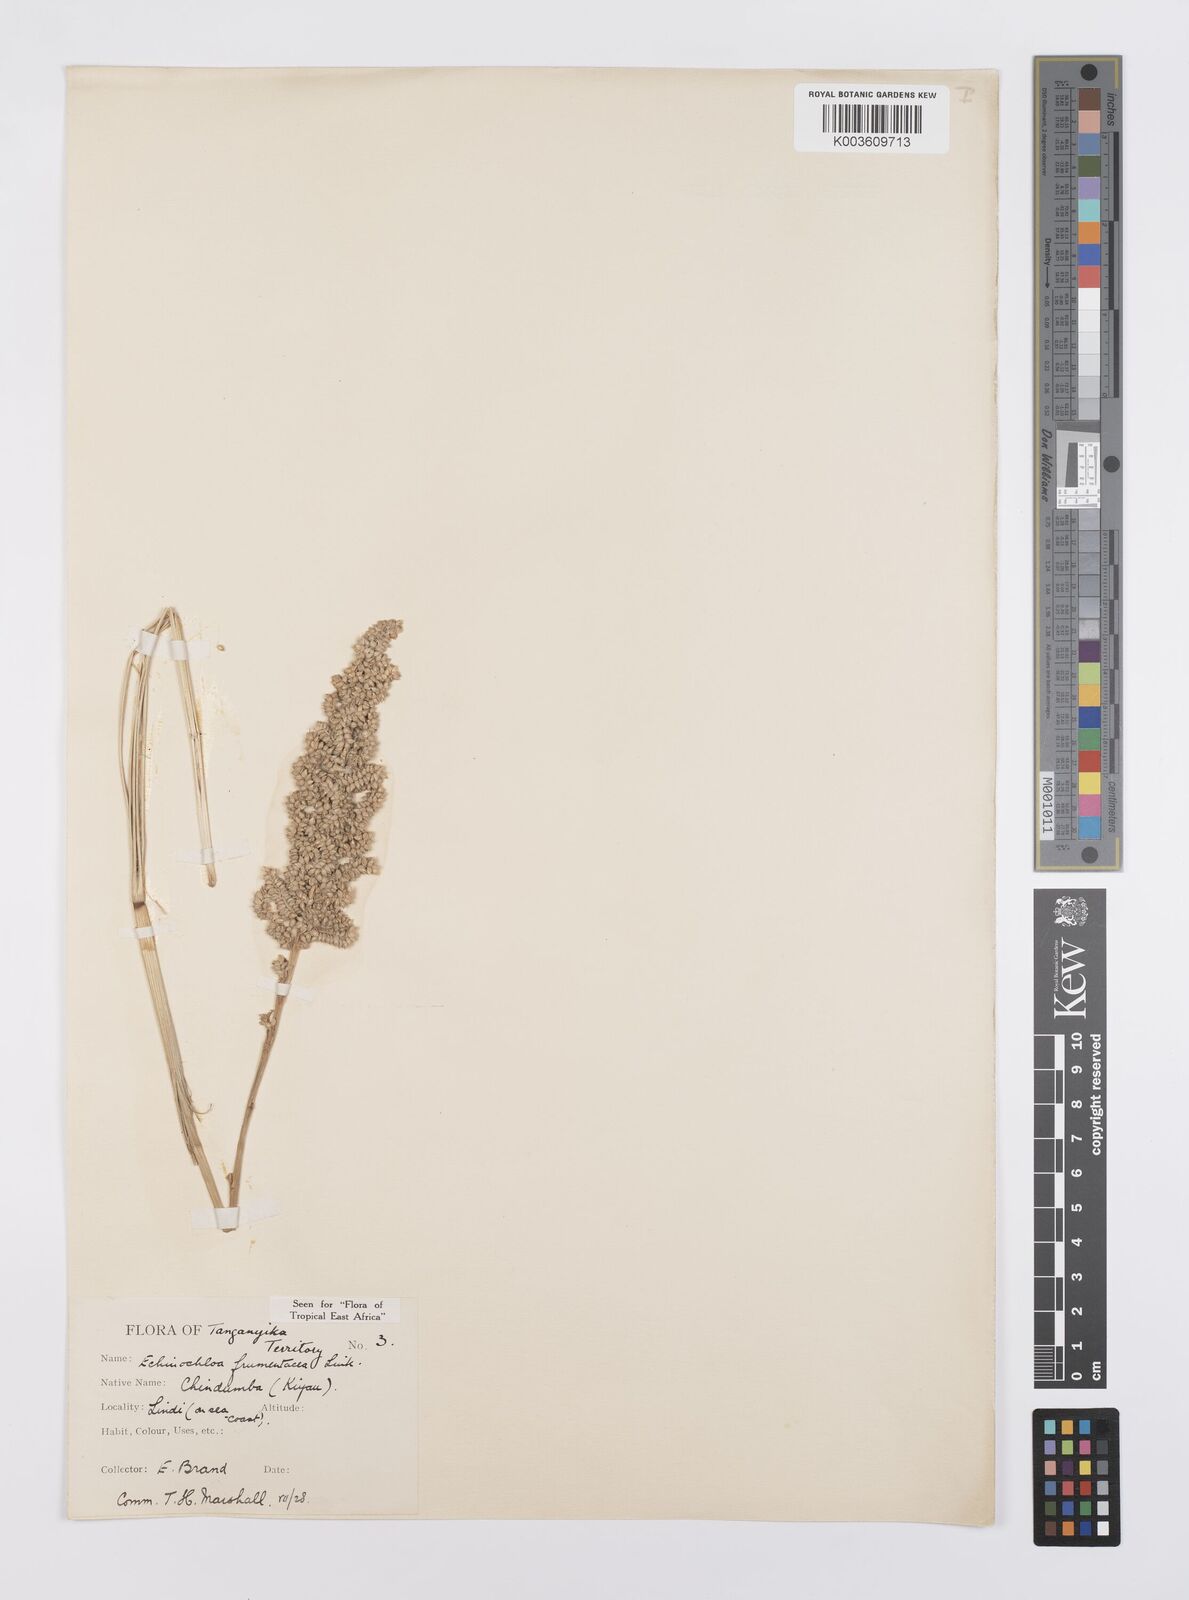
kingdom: Plantae
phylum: Tracheophyta
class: Liliopsida
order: Poales
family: Poaceae
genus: Echinochloa
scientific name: Echinochloa frumentacea
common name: Billion-dollar grass
